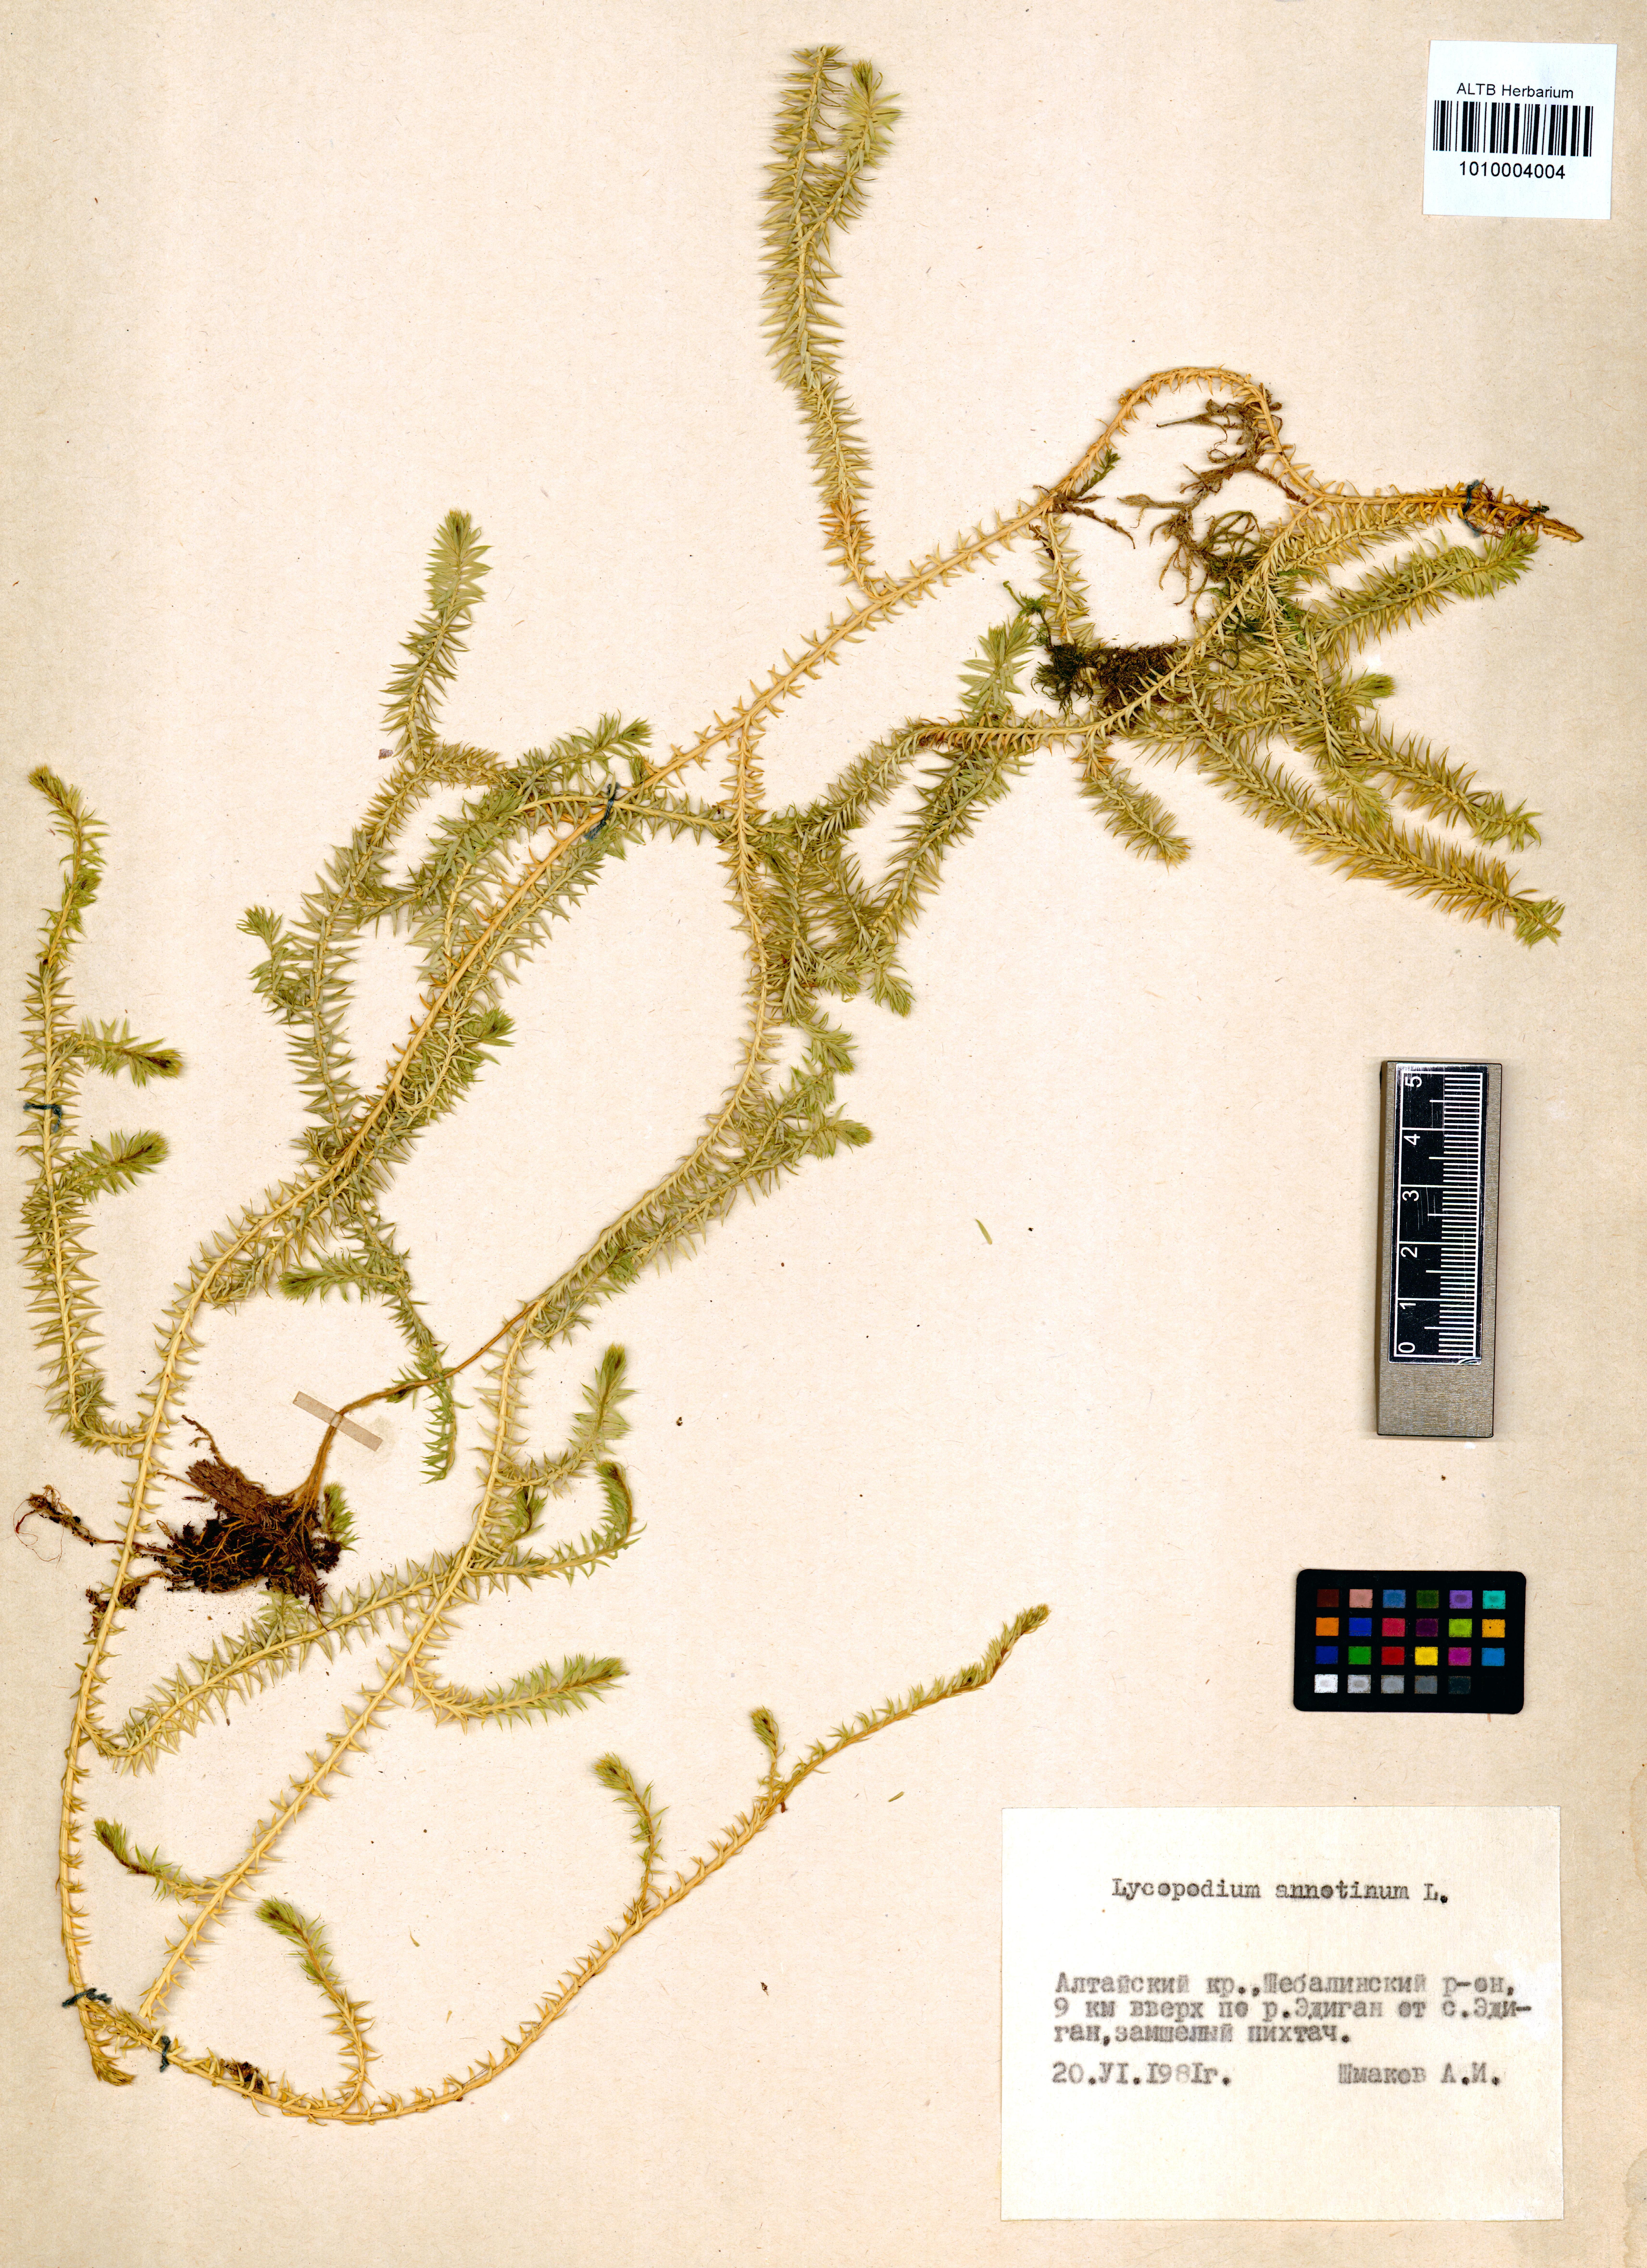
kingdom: Plantae
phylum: Tracheophyta
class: Lycopodiopsida
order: Lycopodiales
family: Lycopodiaceae
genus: Spinulum
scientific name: Spinulum annotinum
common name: Interrupted club-moss
